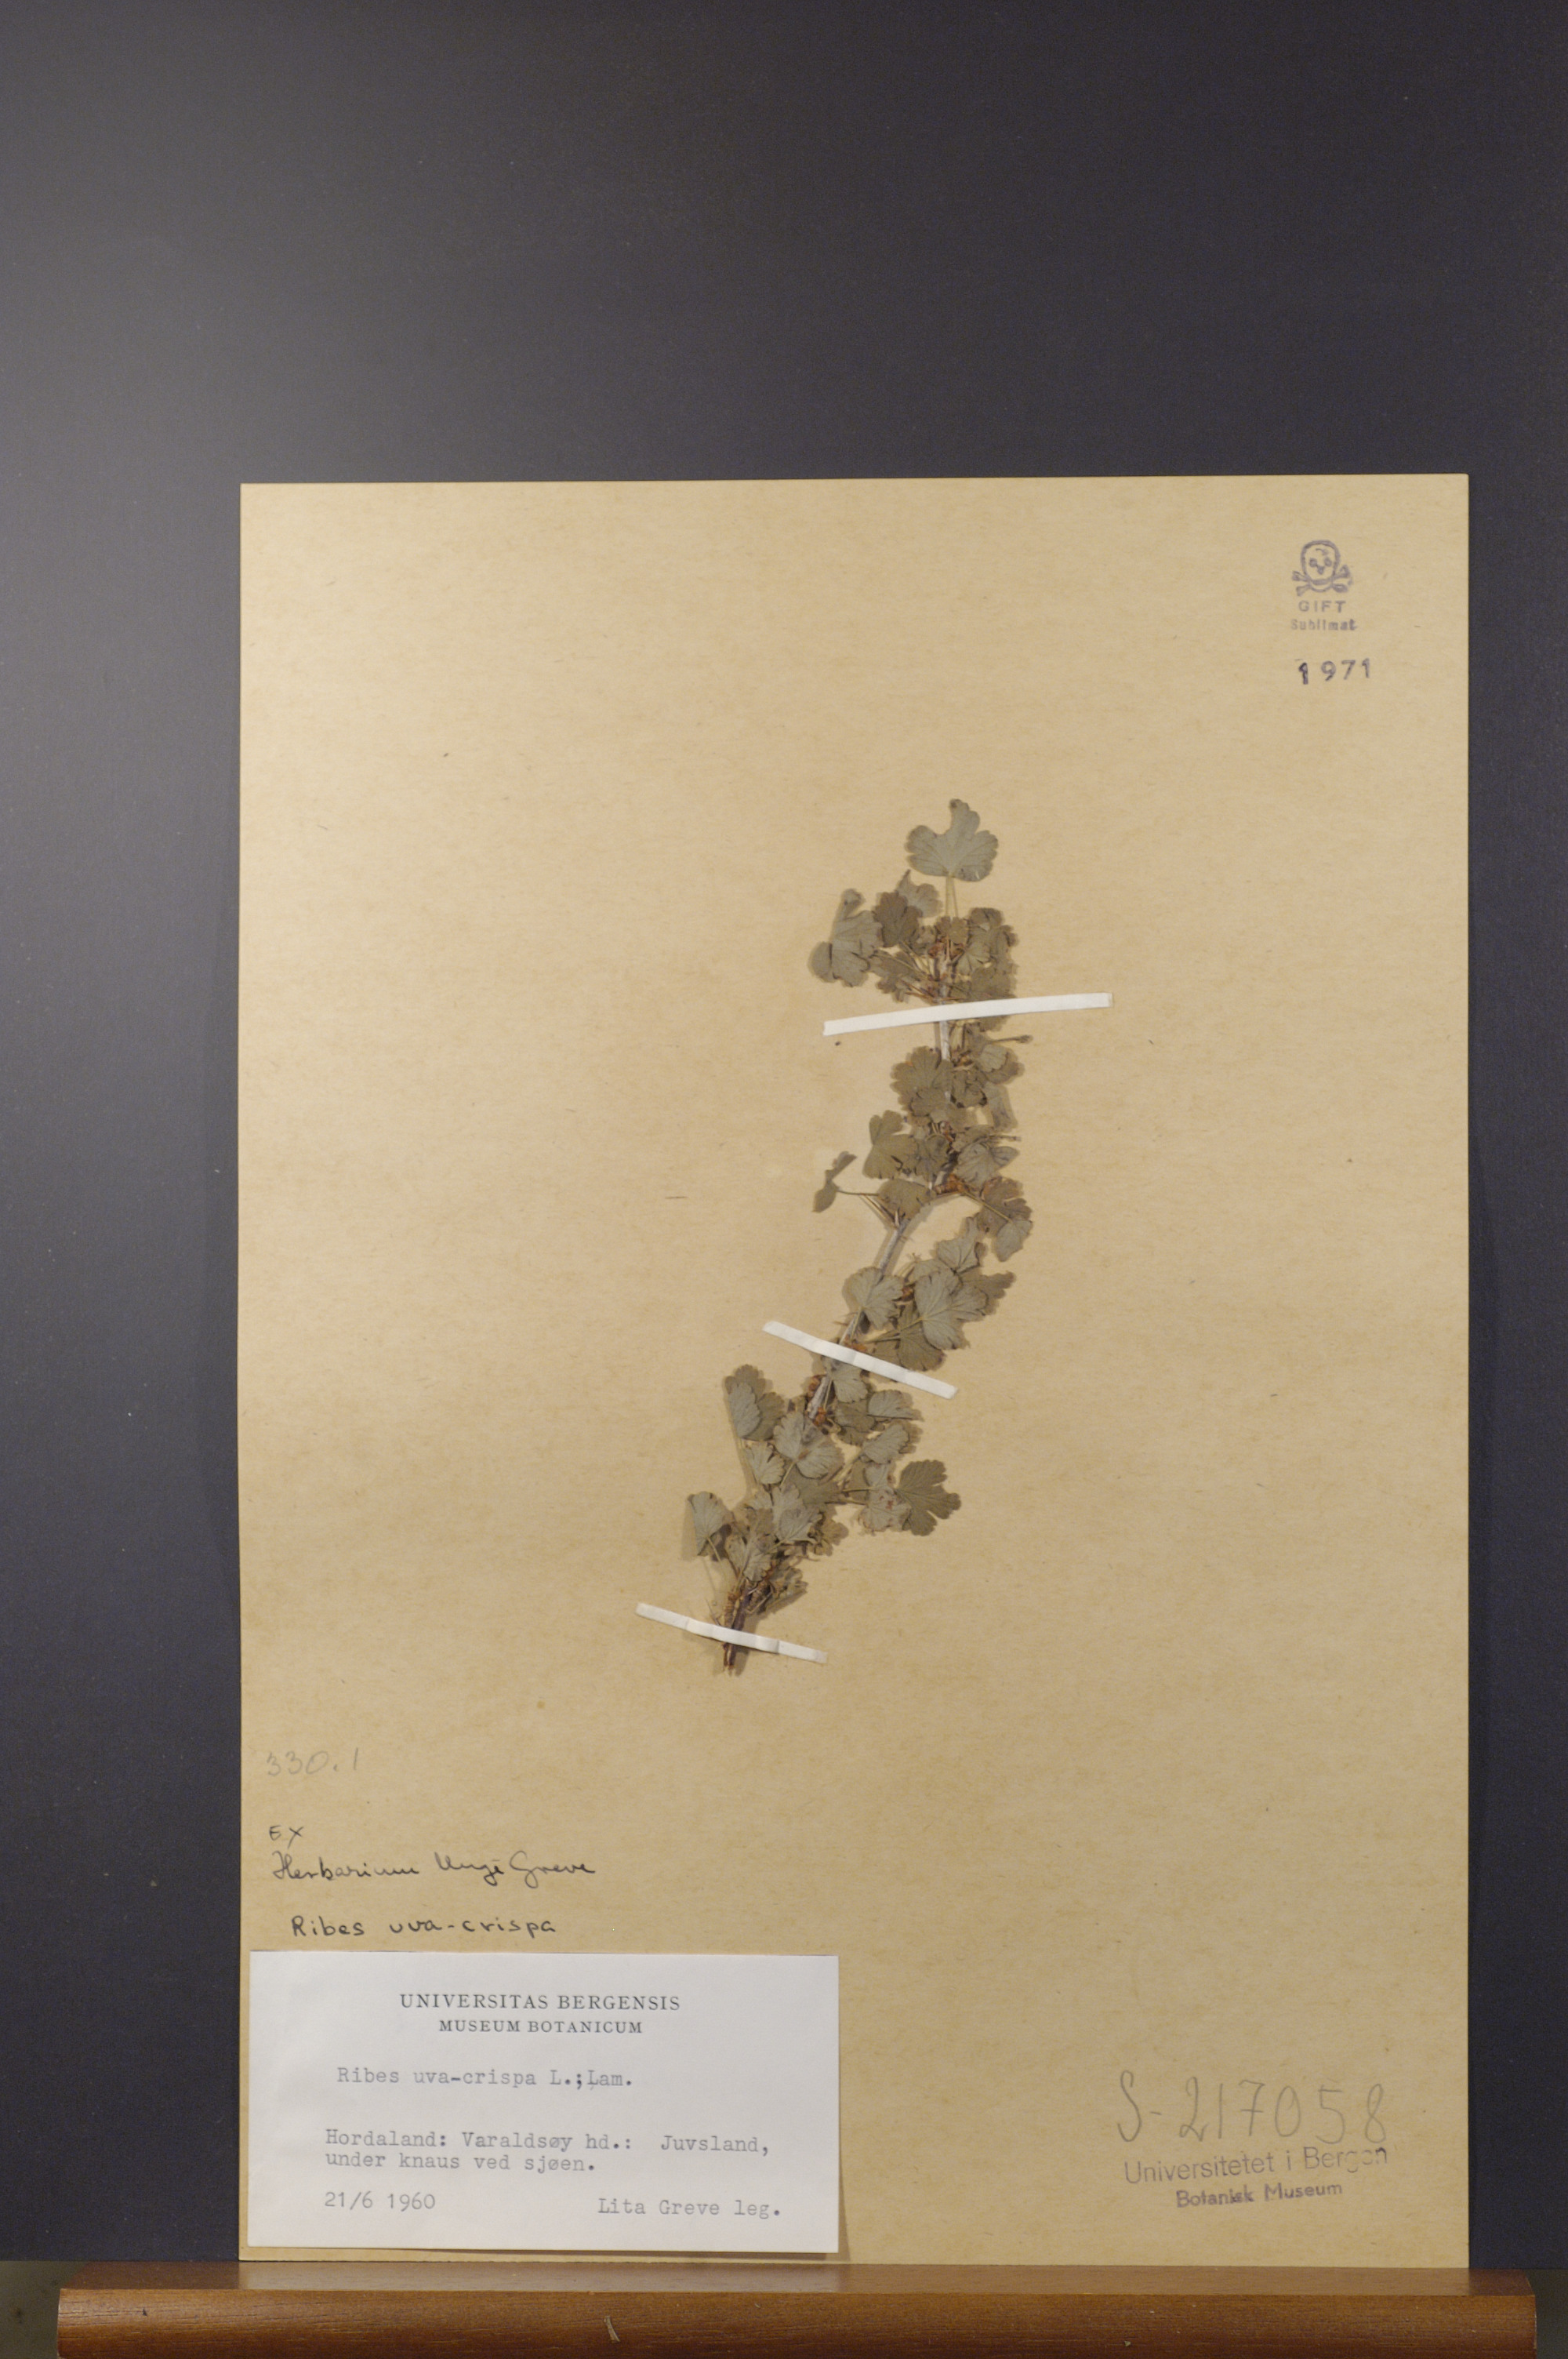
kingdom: Plantae
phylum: Tracheophyta
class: Magnoliopsida
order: Saxifragales
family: Grossulariaceae
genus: Ribes
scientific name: Ribes uva-crispa
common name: Gooseberry
